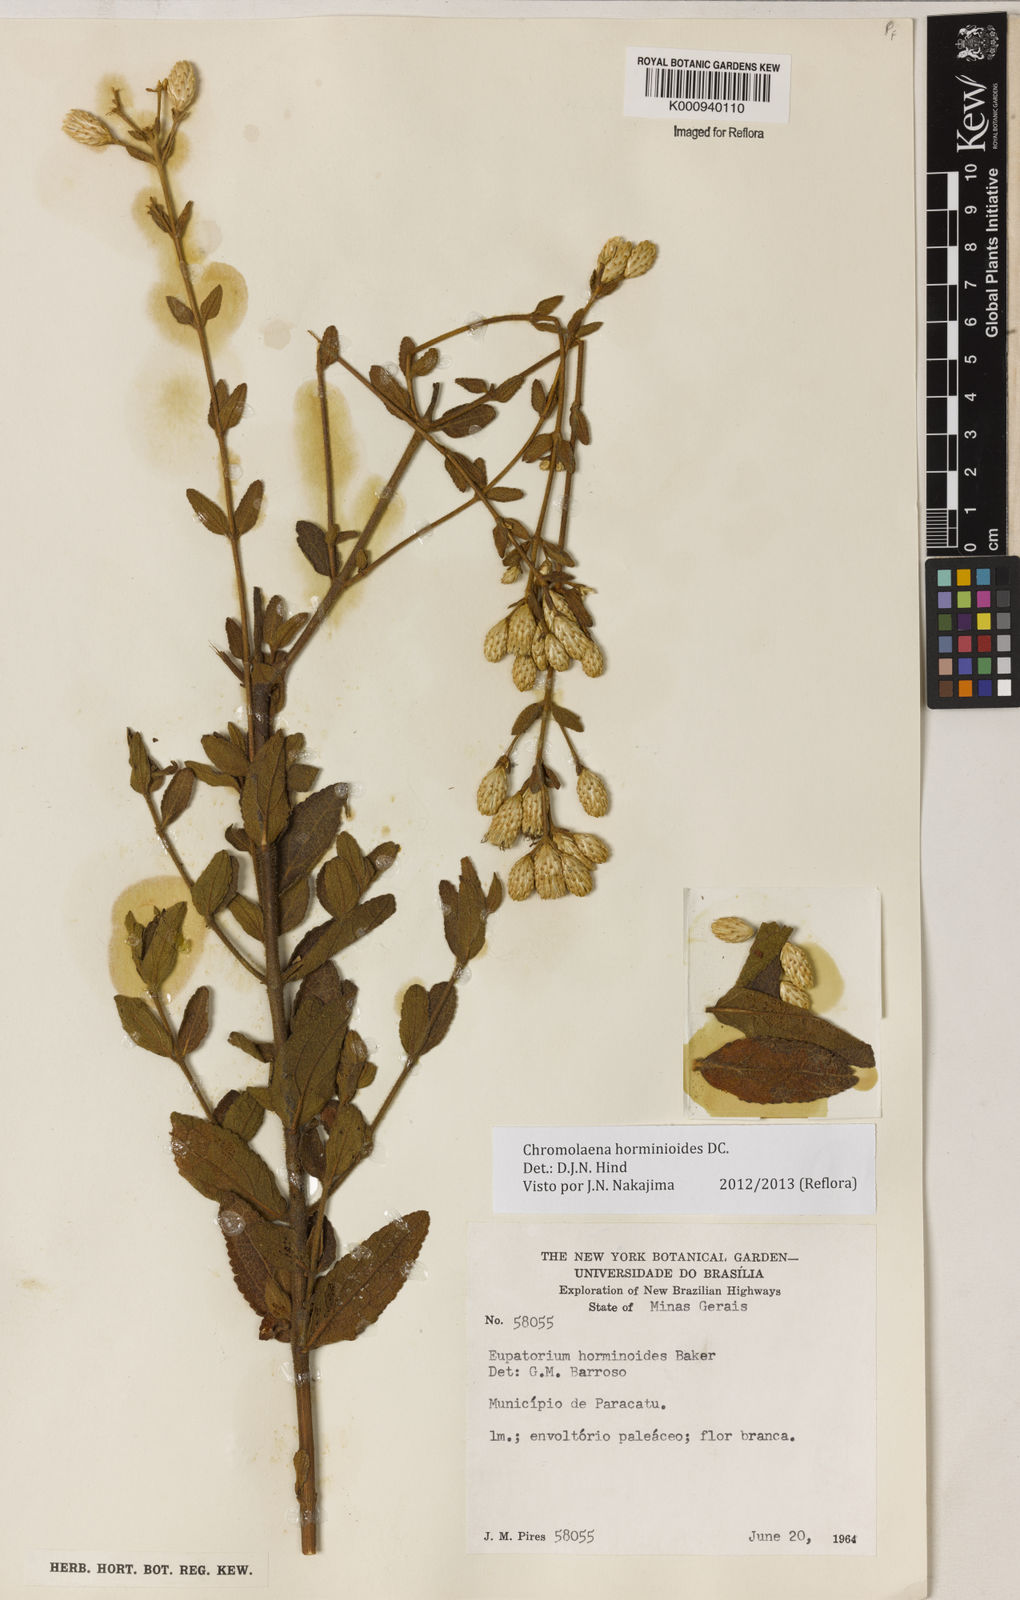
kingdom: Plantae
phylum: Tracheophyta
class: Magnoliopsida
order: Asterales
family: Asteraceae
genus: Chromolaena
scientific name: Chromolaena horminoides
